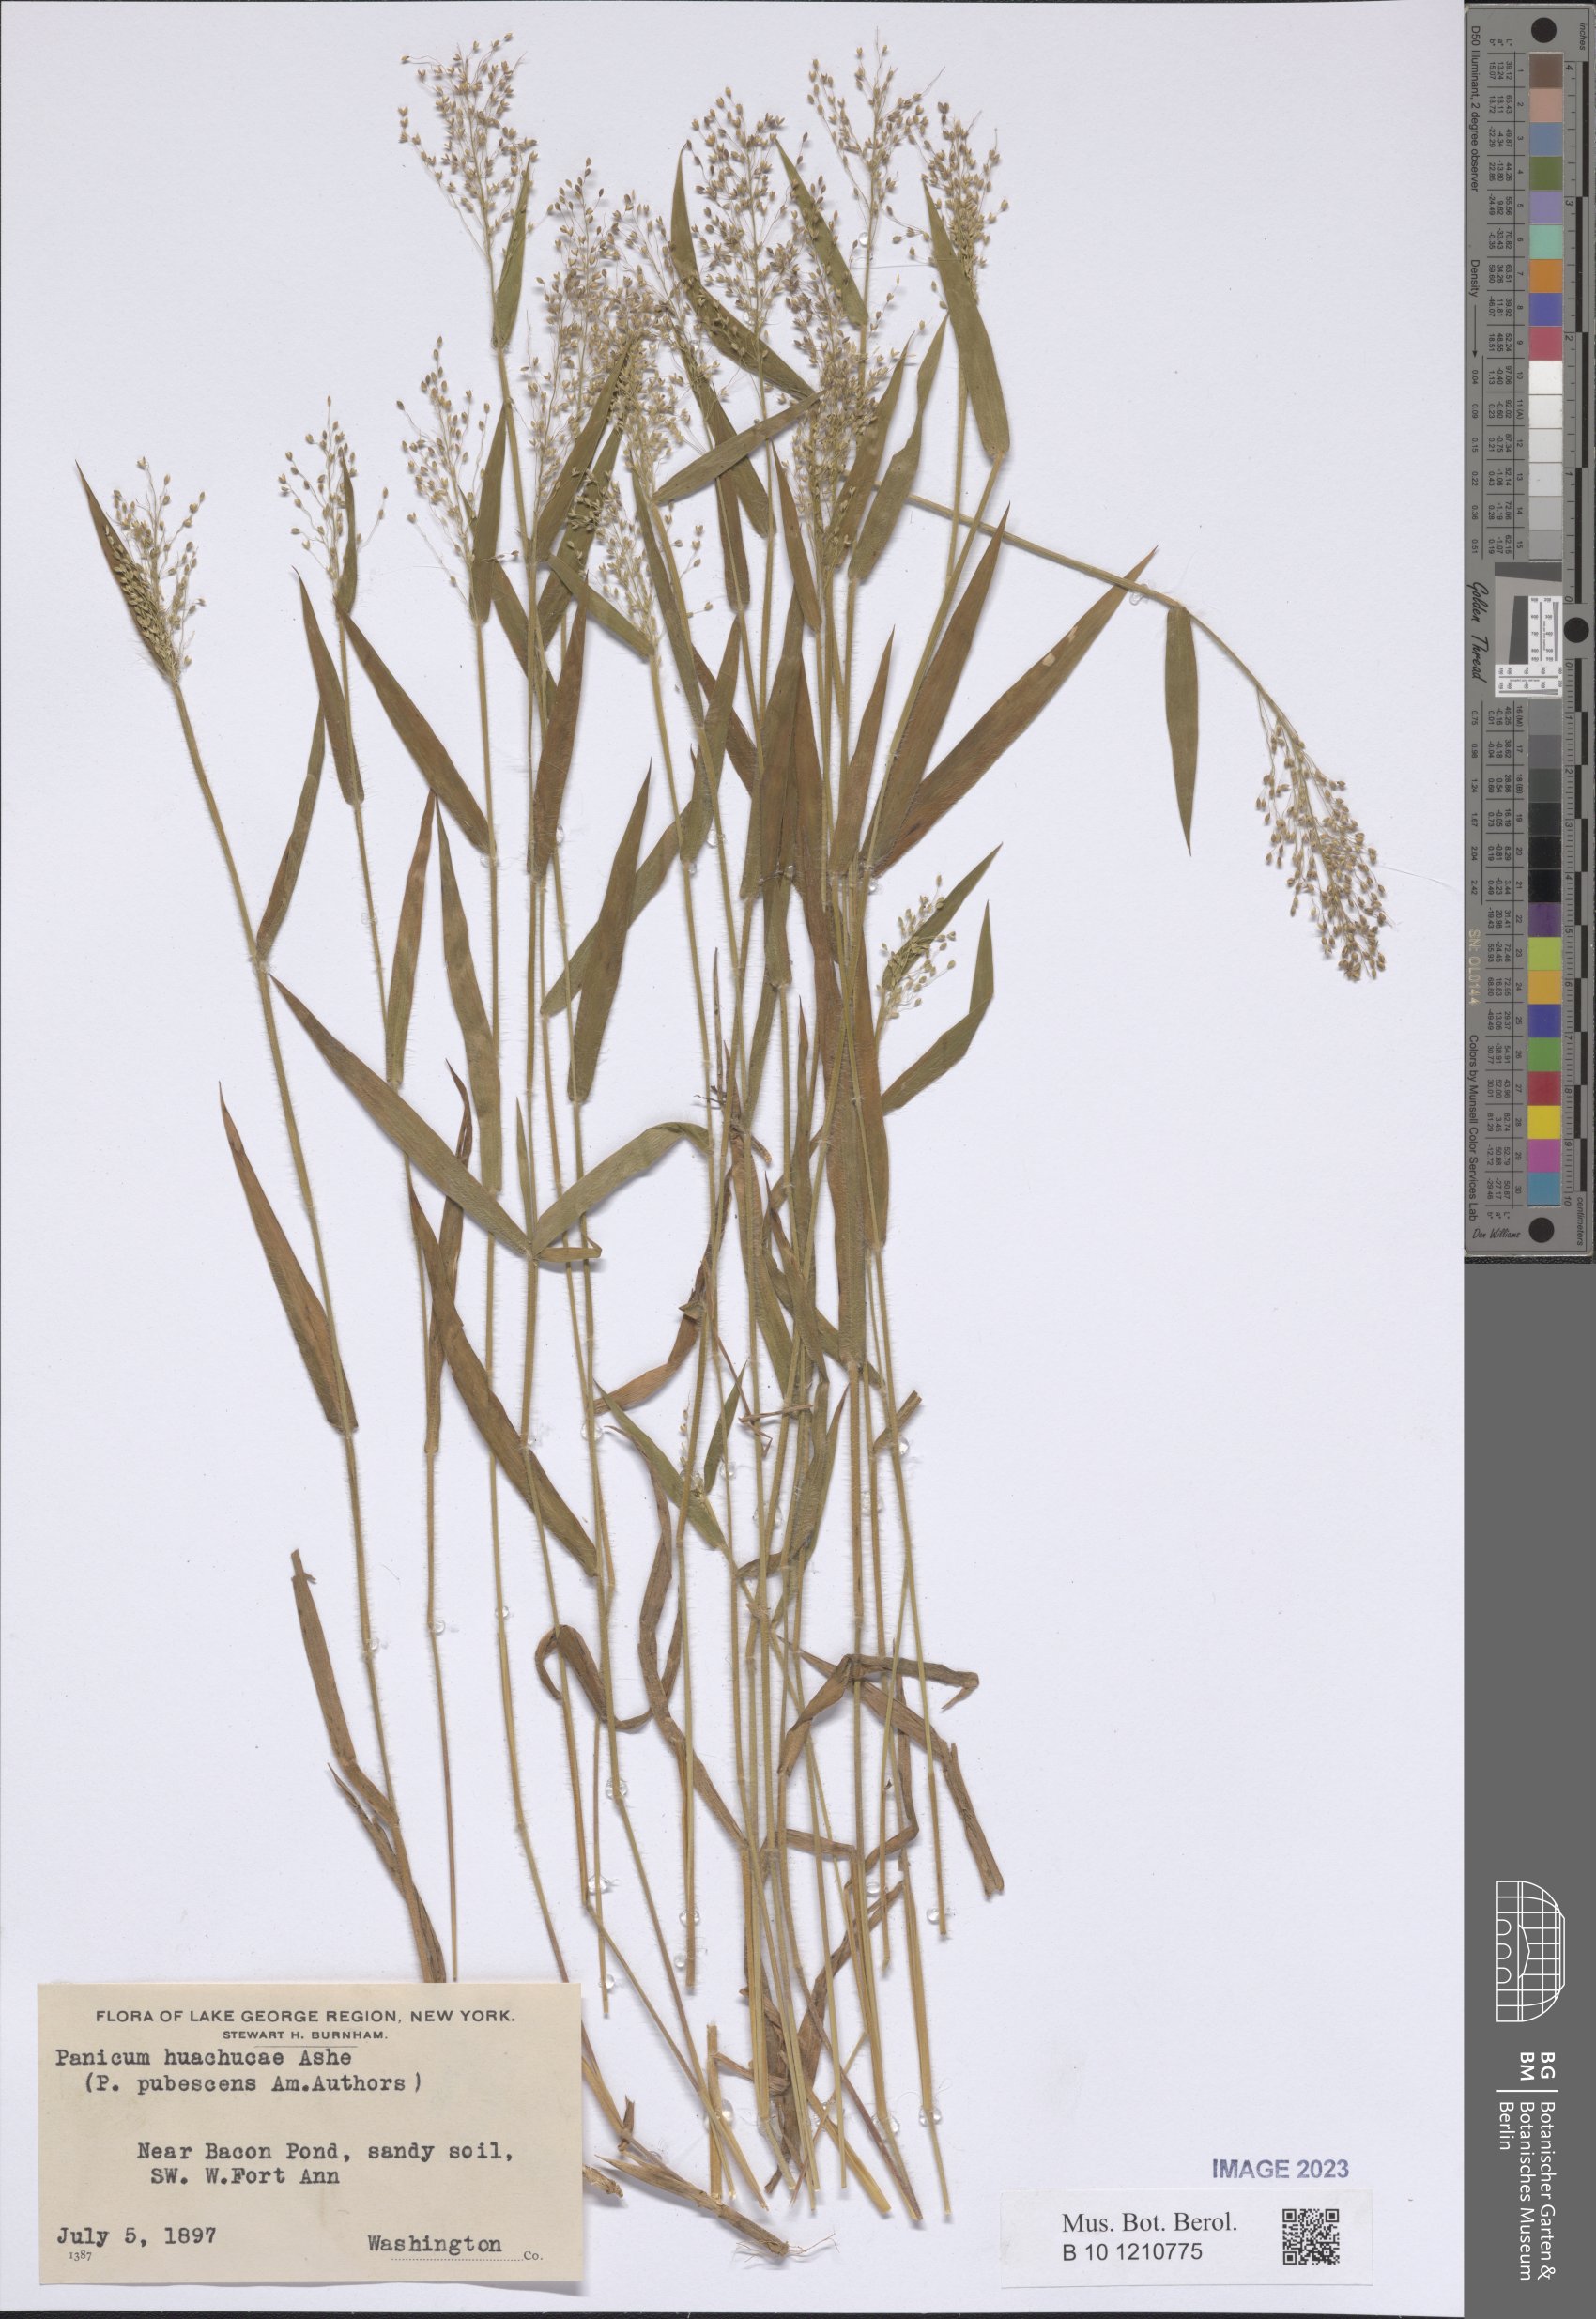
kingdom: Plantae
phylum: Tracheophyta
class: Liliopsida
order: Poales
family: Poaceae
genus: Dichanthelium
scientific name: Dichanthelium lanuginosum
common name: Woolly panicgrass
